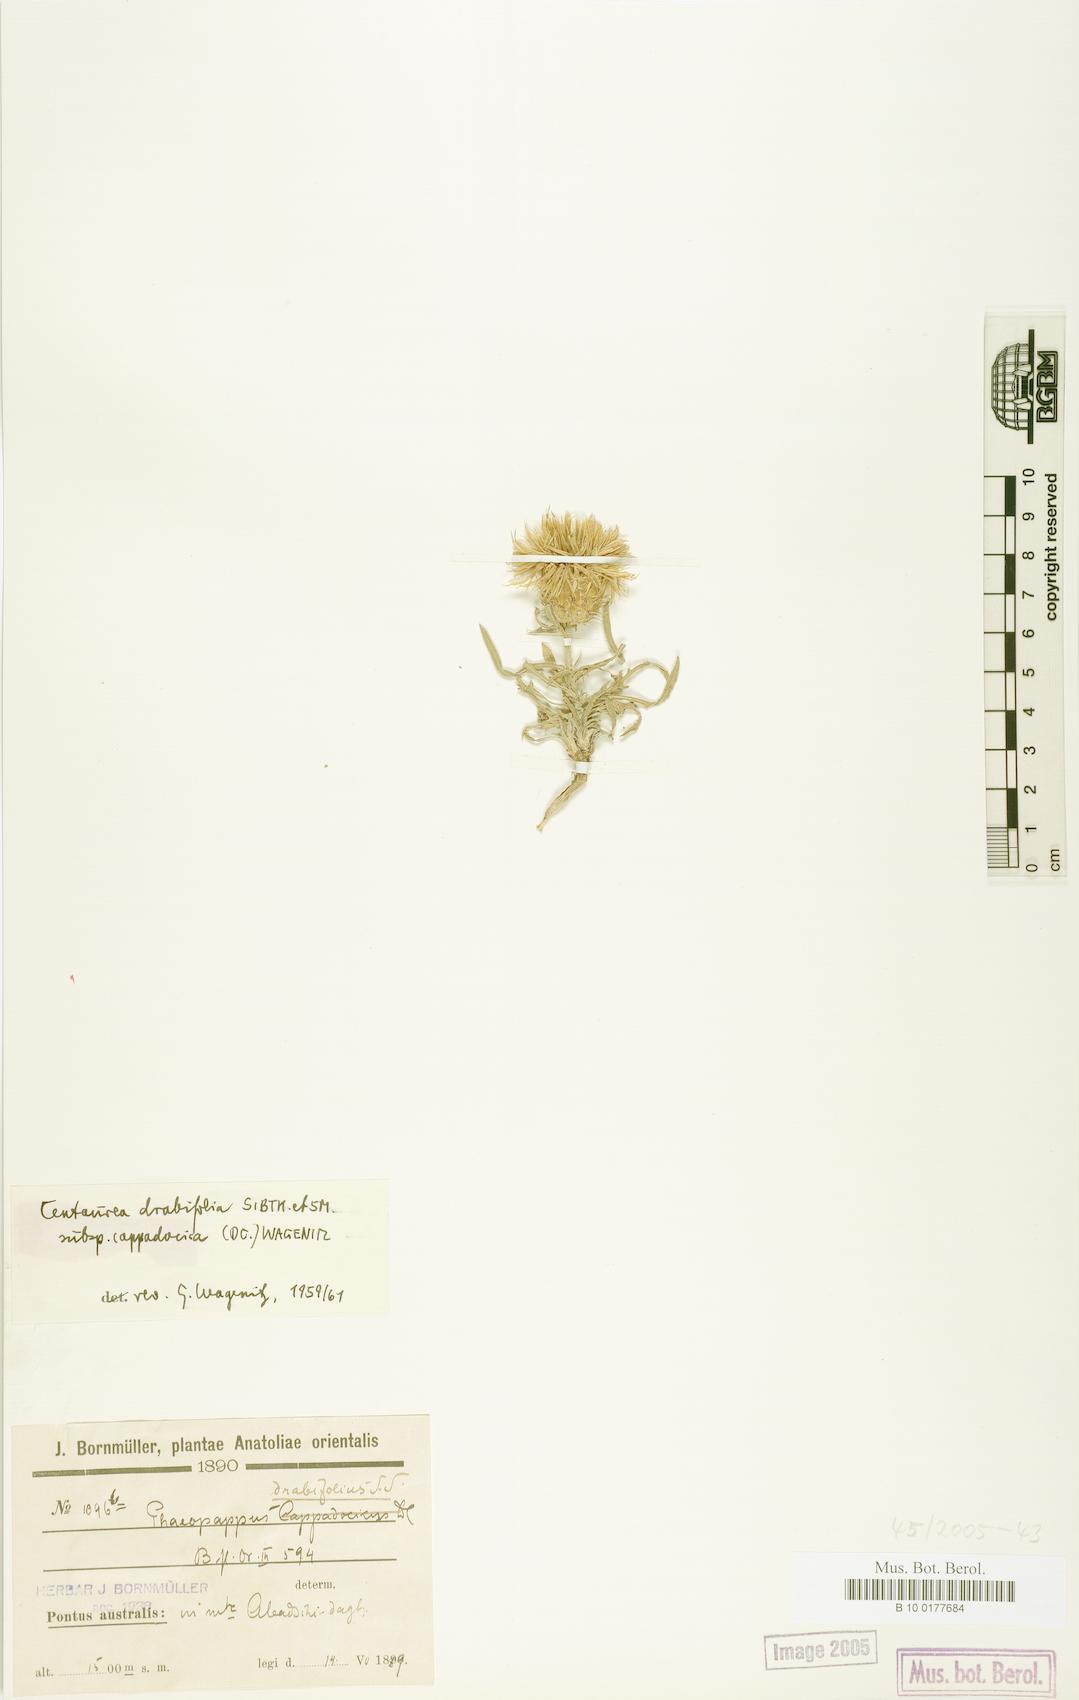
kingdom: Plantae
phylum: Tracheophyta
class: Magnoliopsida
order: Asterales
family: Asteraceae
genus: Centaurea
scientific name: Centaurea drabifolia
